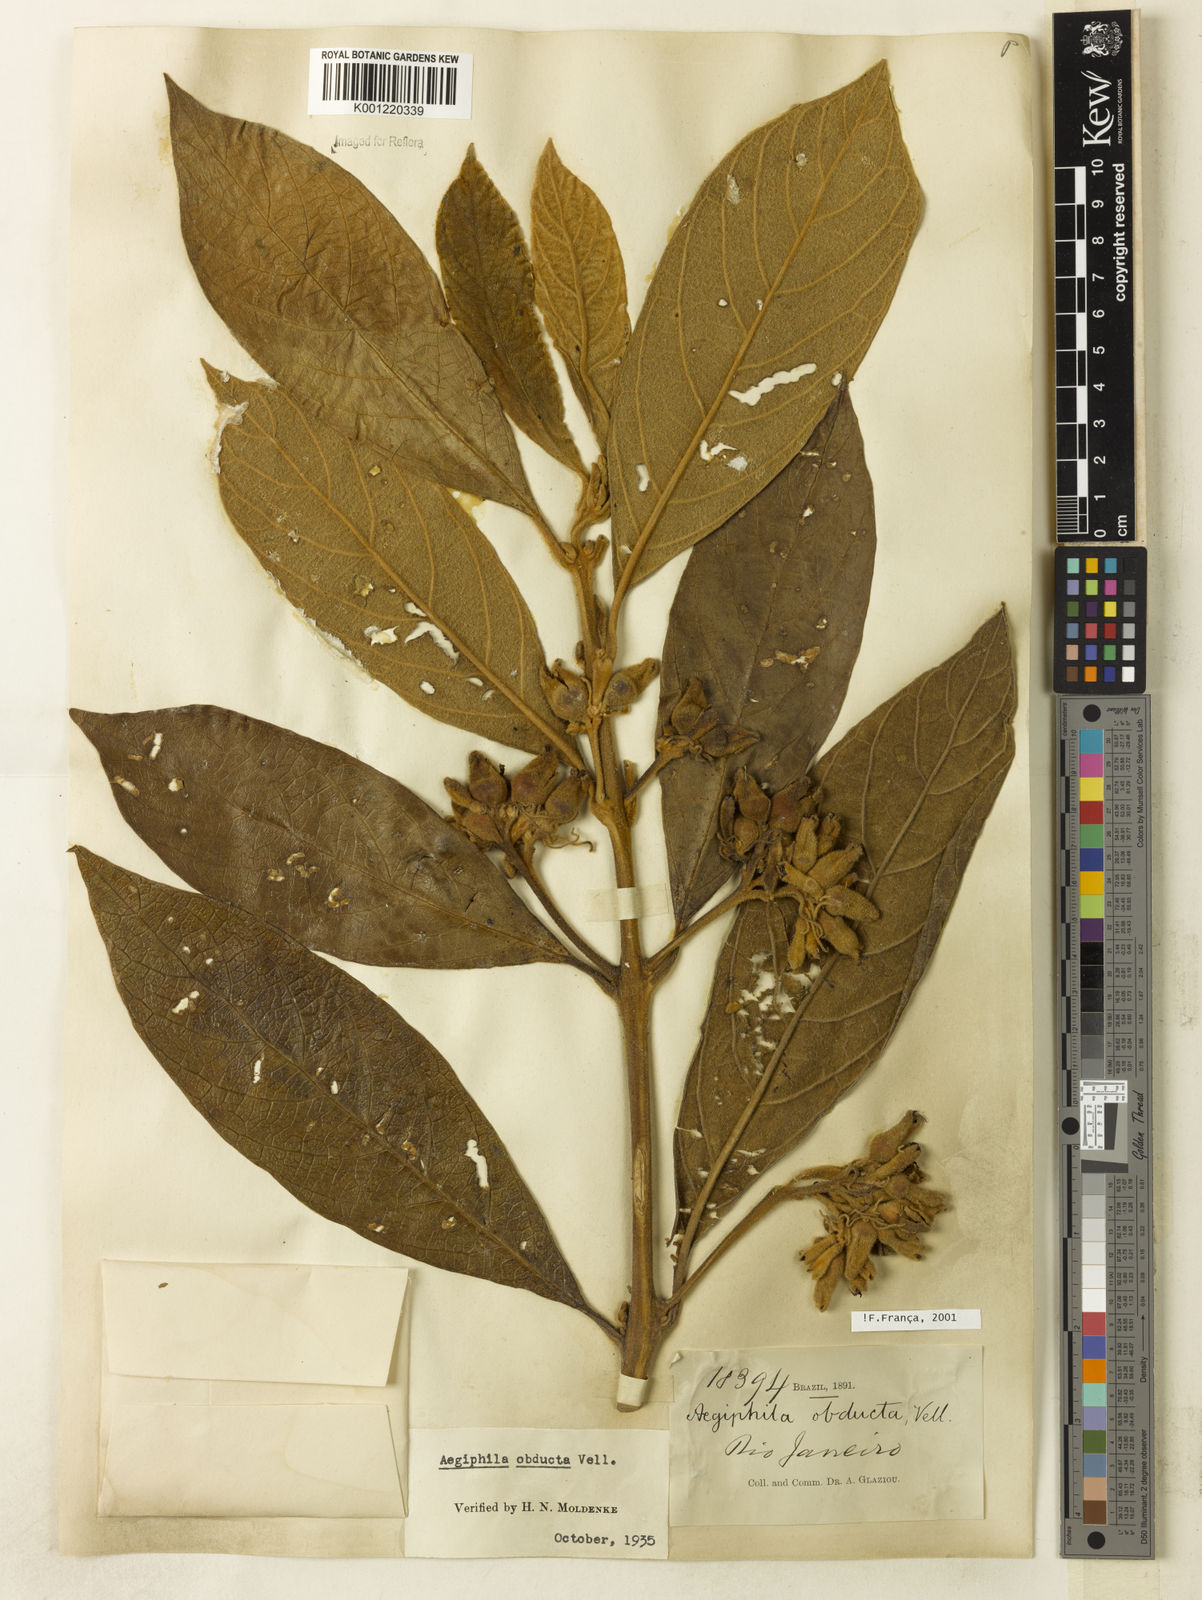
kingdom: Plantae
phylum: Tracheophyta
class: Magnoliopsida
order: Lamiales
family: Lamiaceae
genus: Aegiphila
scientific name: Aegiphila obducta
